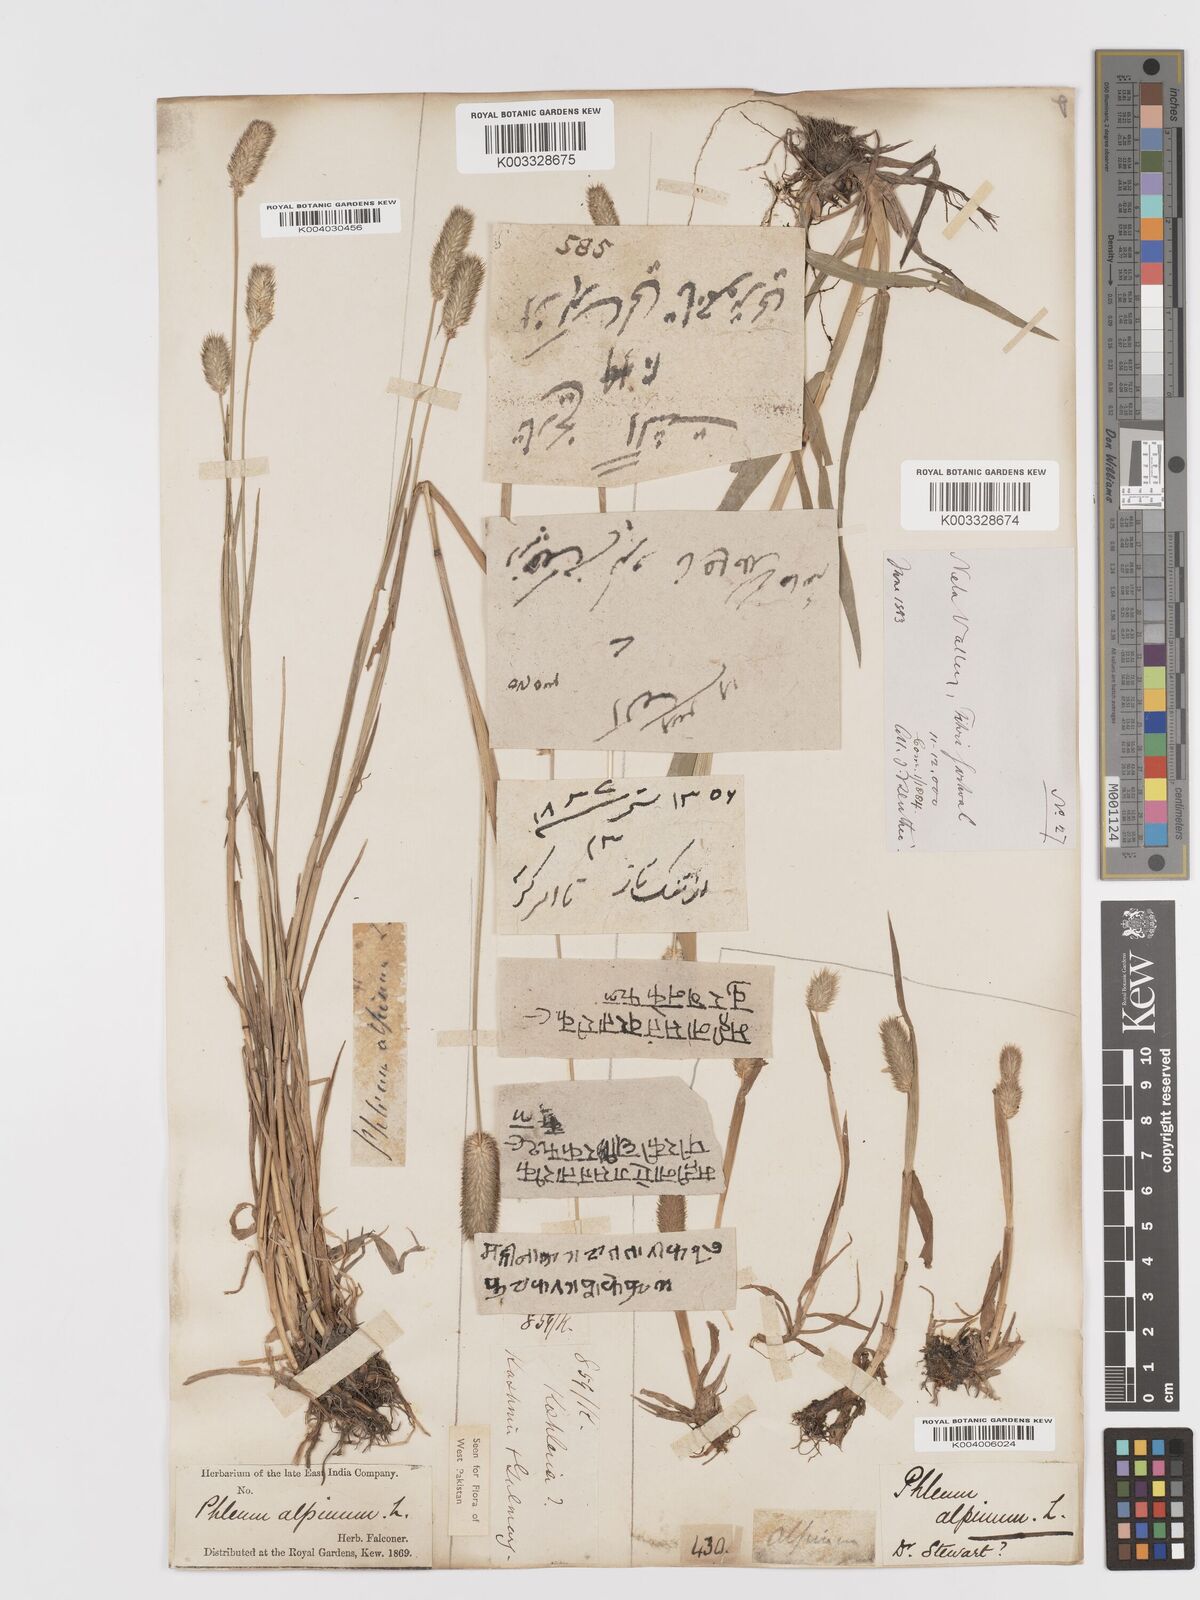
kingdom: Plantae
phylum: Tracheophyta
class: Liliopsida
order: Poales
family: Poaceae
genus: Phleum
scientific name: Phleum alpinum
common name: Alpine cat's-tail
